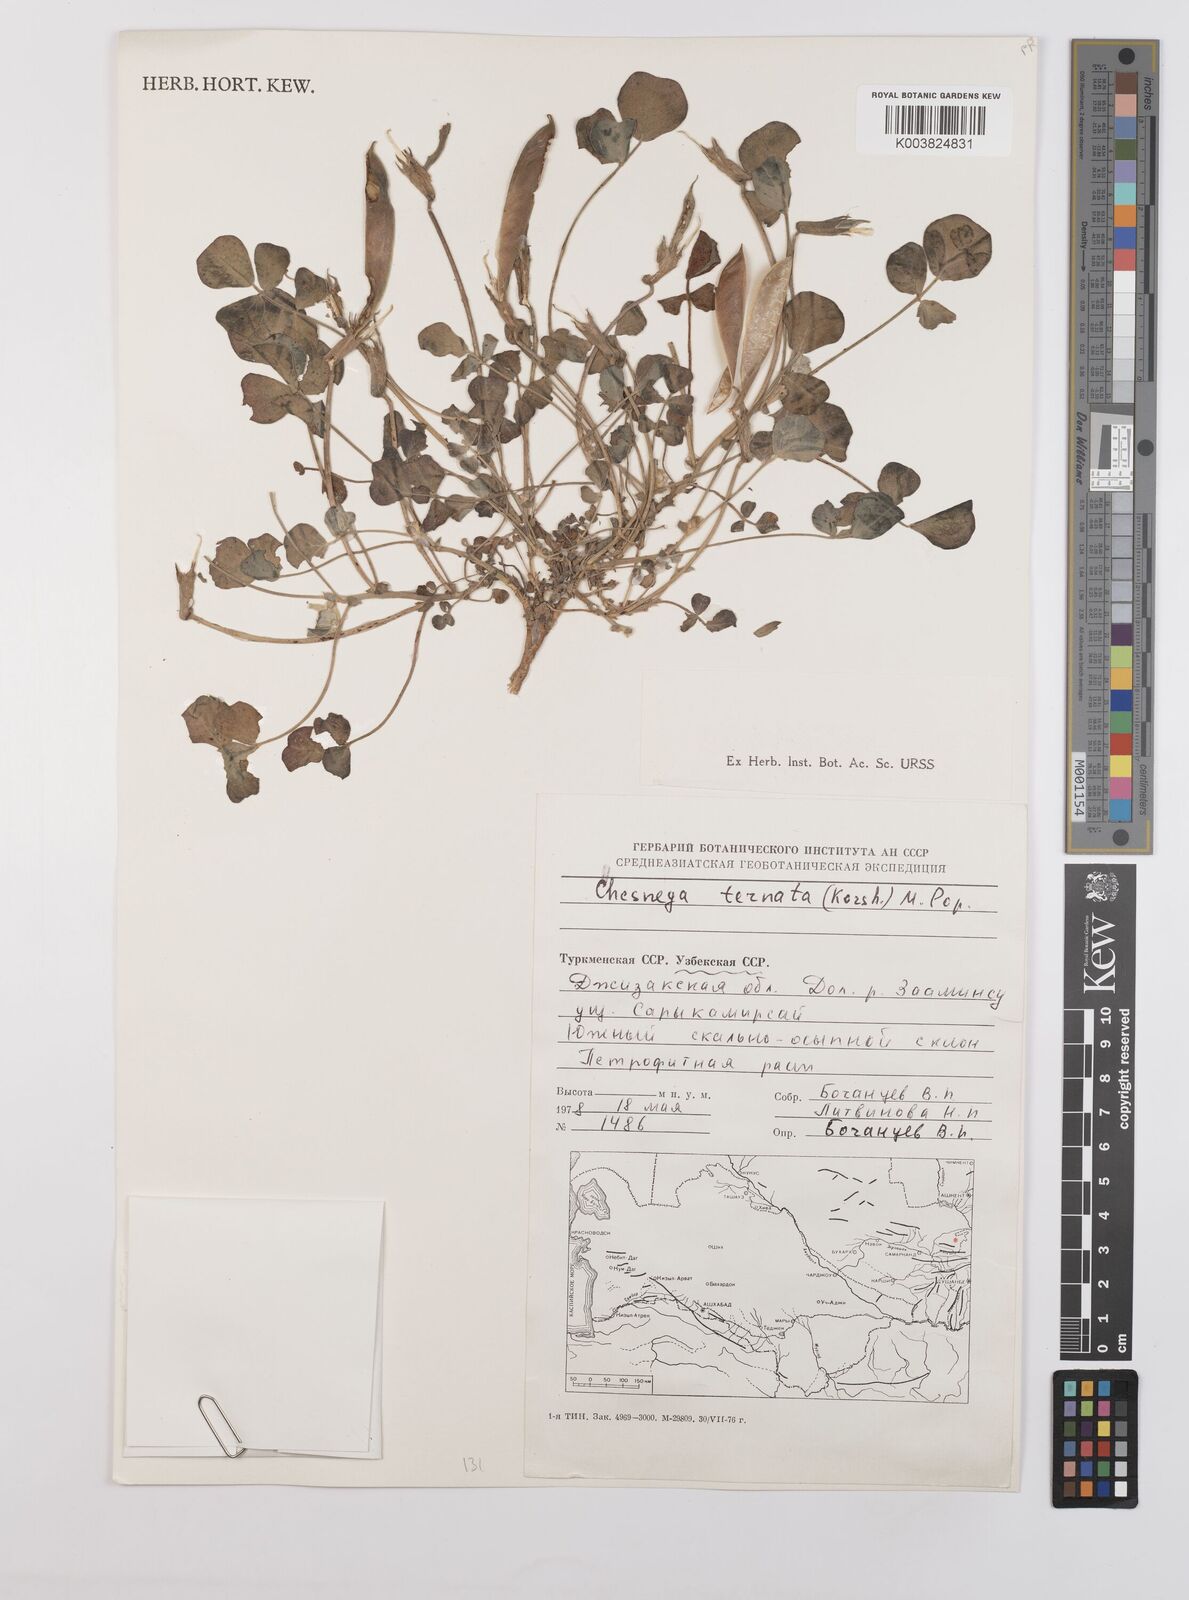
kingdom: Plantae
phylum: Tracheophyta
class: Magnoliopsida
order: Fabales
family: Fabaceae
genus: Chesneya
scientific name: Chesneya neplii
